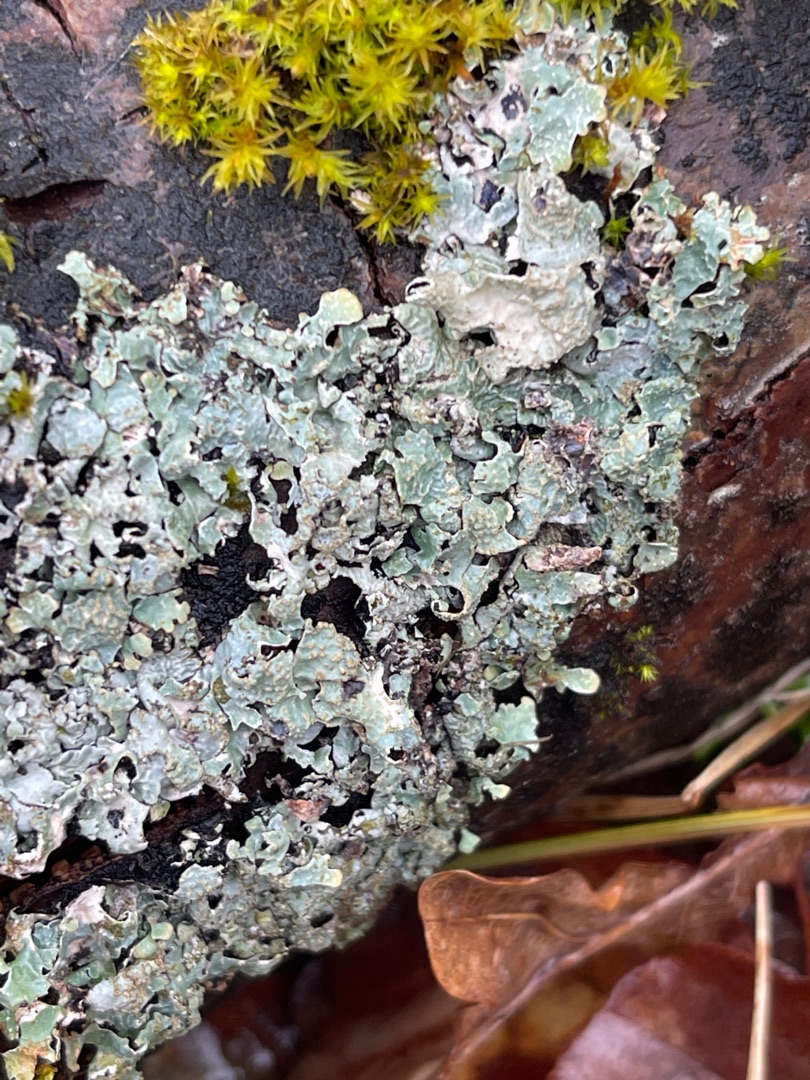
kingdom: Fungi
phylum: Ascomycota
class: Lecanoromycetes
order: Lecanorales
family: Parmeliaceae
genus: Parmelia
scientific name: Parmelia sulcata
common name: Rynket skållav
